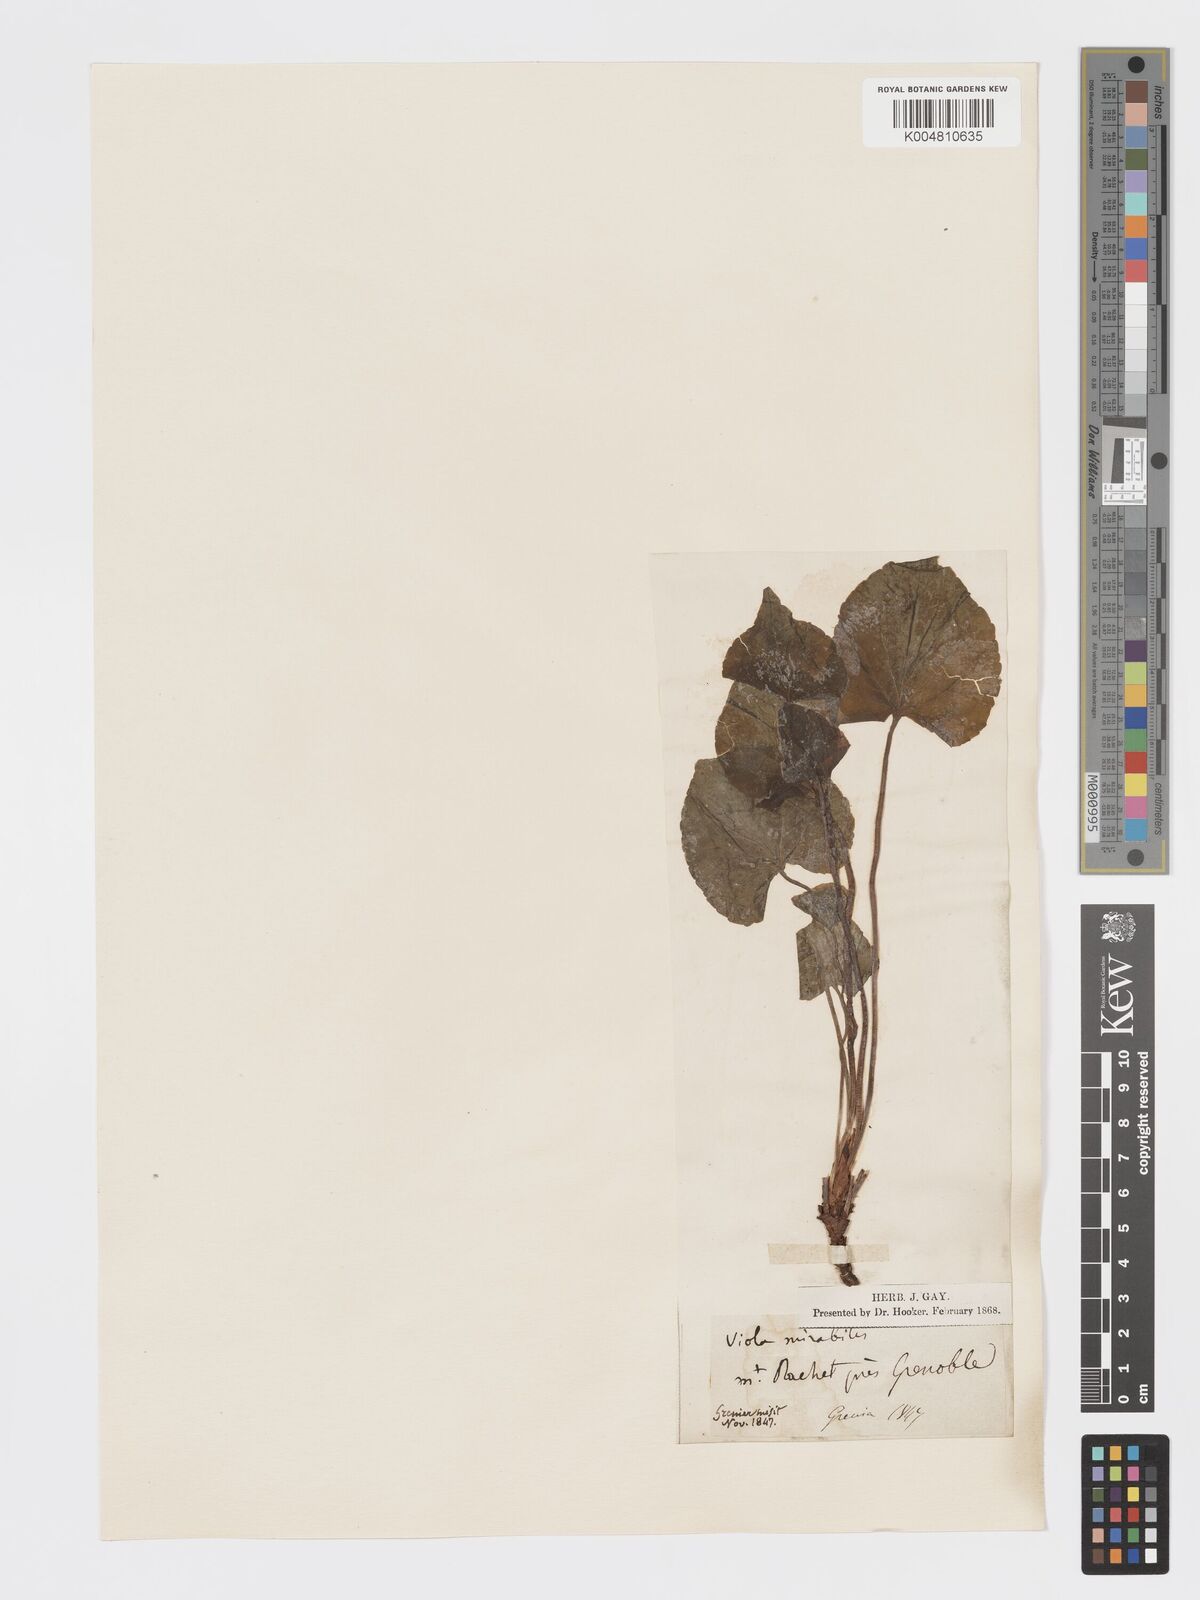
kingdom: Plantae
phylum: Tracheophyta
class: Magnoliopsida
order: Malpighiales
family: Violaceae
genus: Viola
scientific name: Viola mirabilis
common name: Wonder violet
